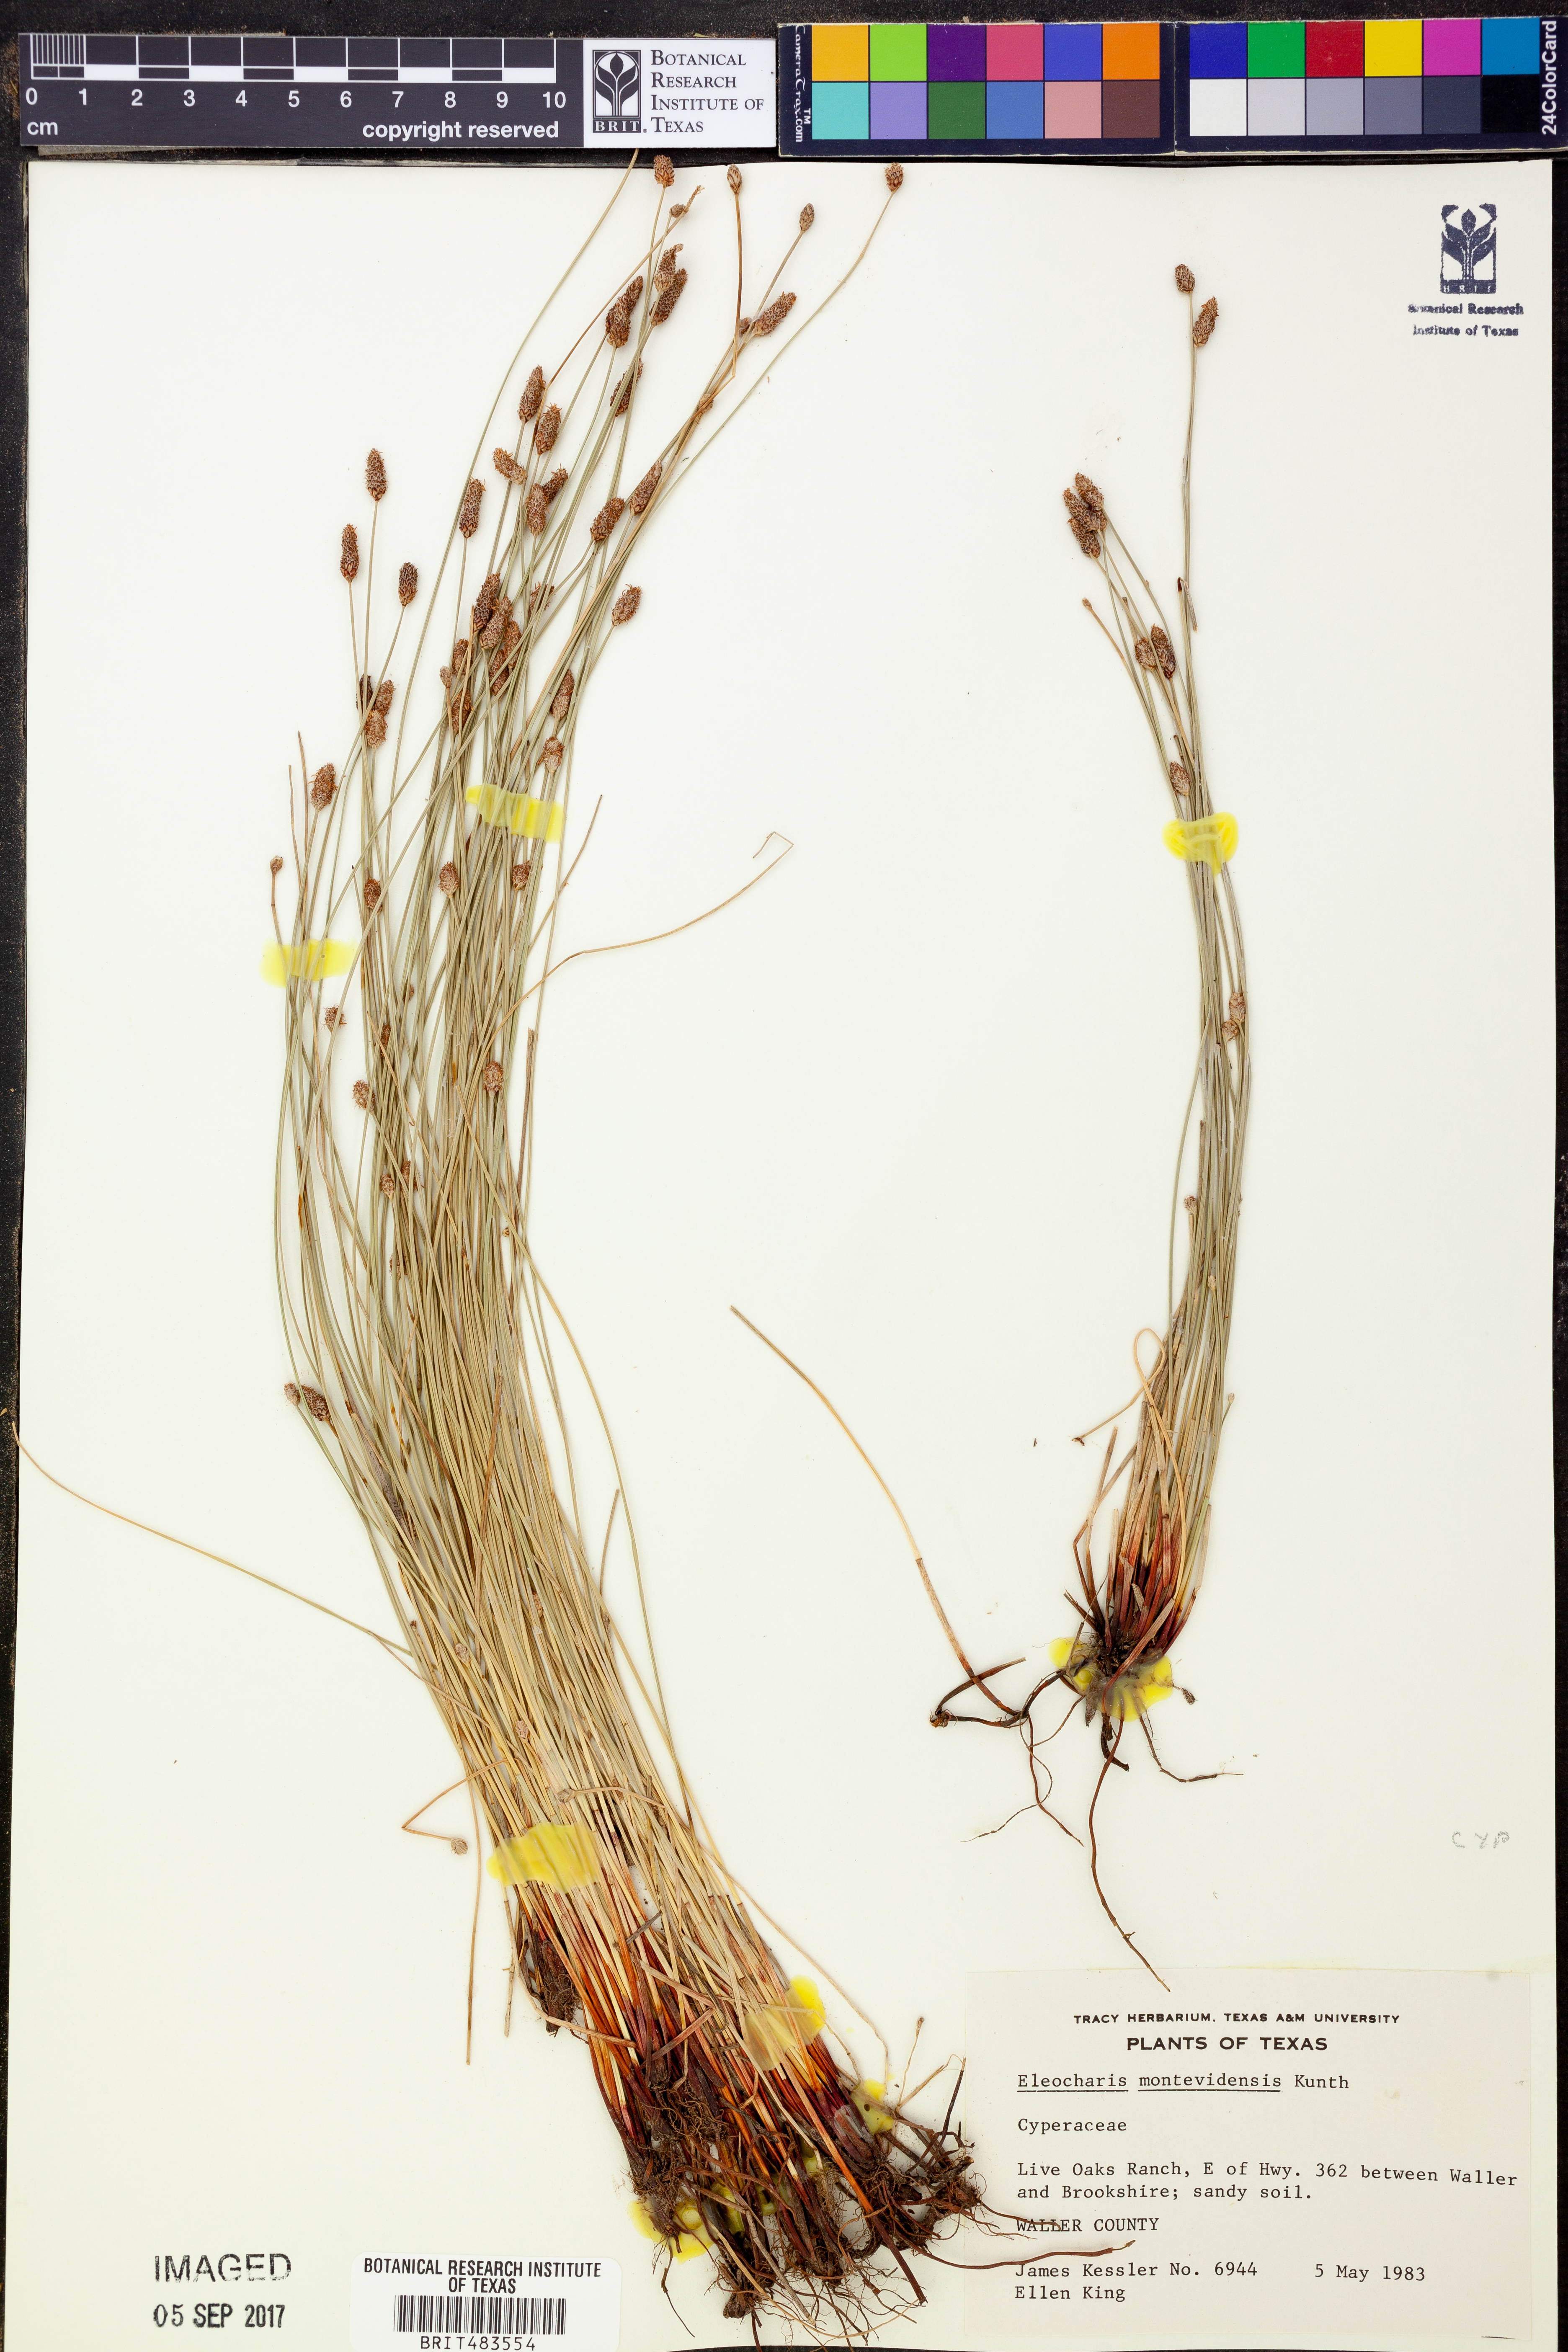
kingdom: Plantae
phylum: Tracheophyta
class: Liliopsida
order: Poales
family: Cyperaceae
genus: Eleocharis
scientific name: Eleocharis montevidensis
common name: Sand spike-rush
